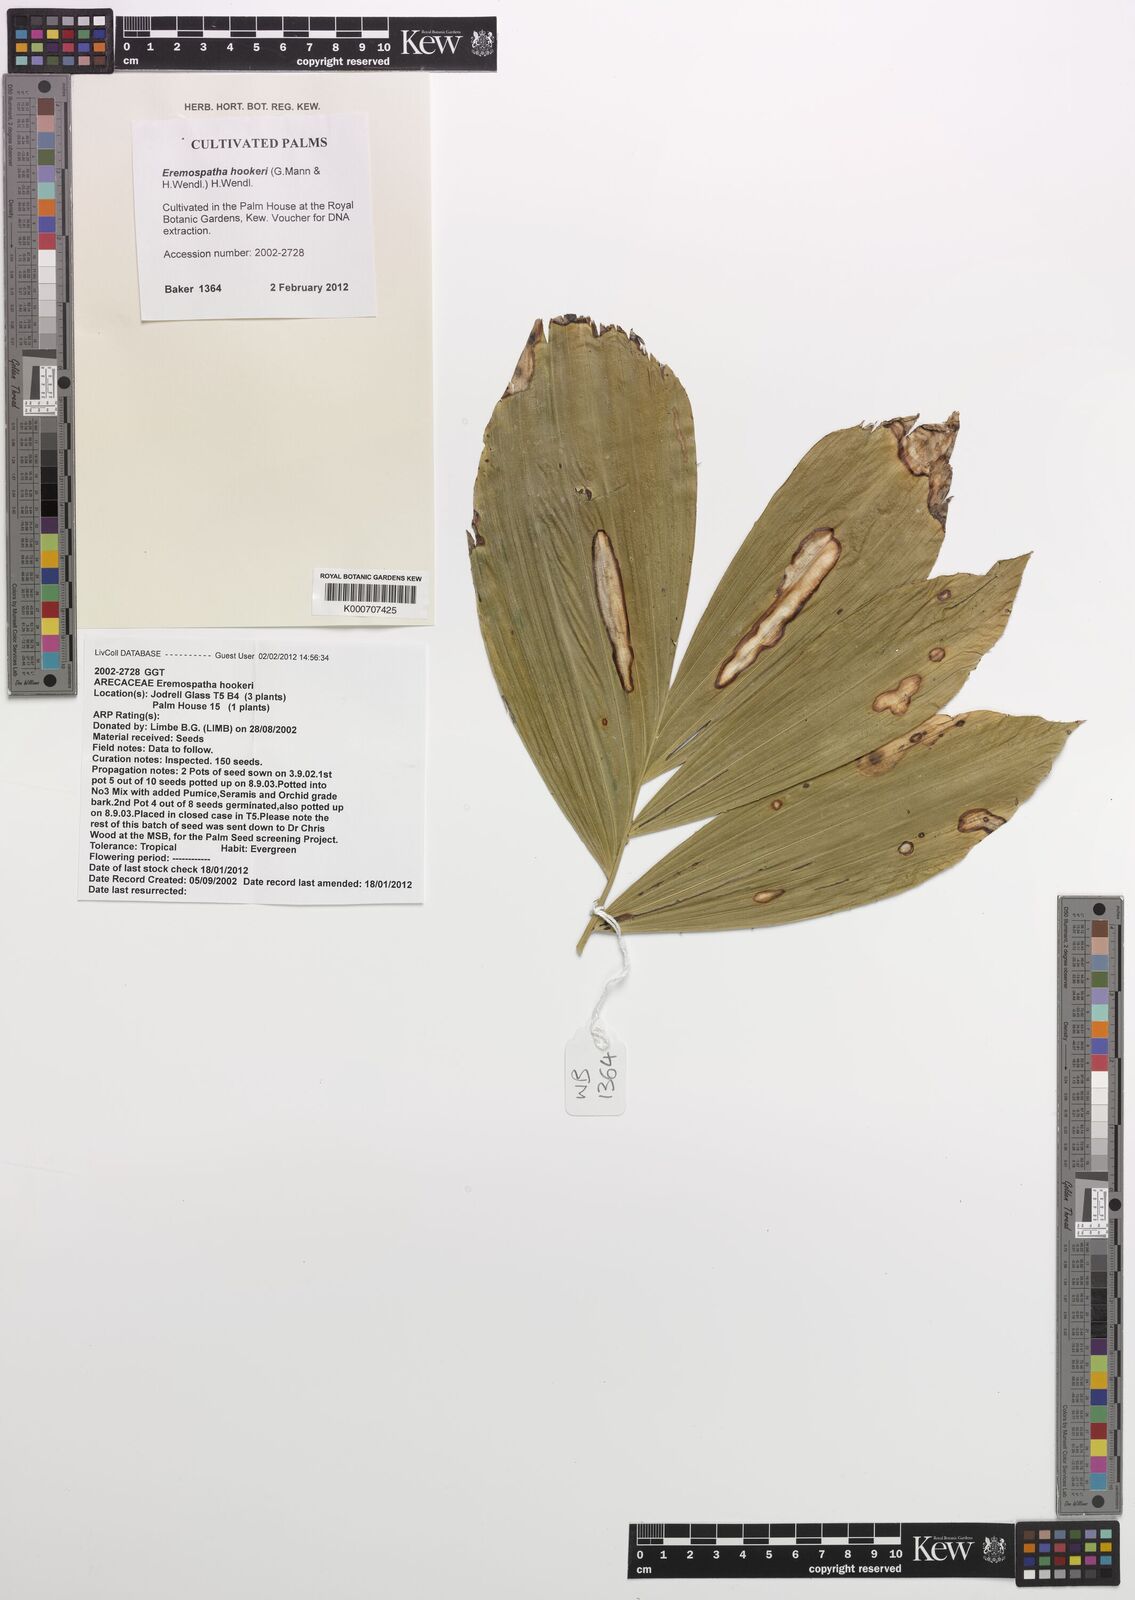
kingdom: Plantae
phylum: Tracheophyta
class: Liliopsida
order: Arecales
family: Arecaceae
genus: Eremospatha
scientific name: Eremospatha hookeri
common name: Rattan
